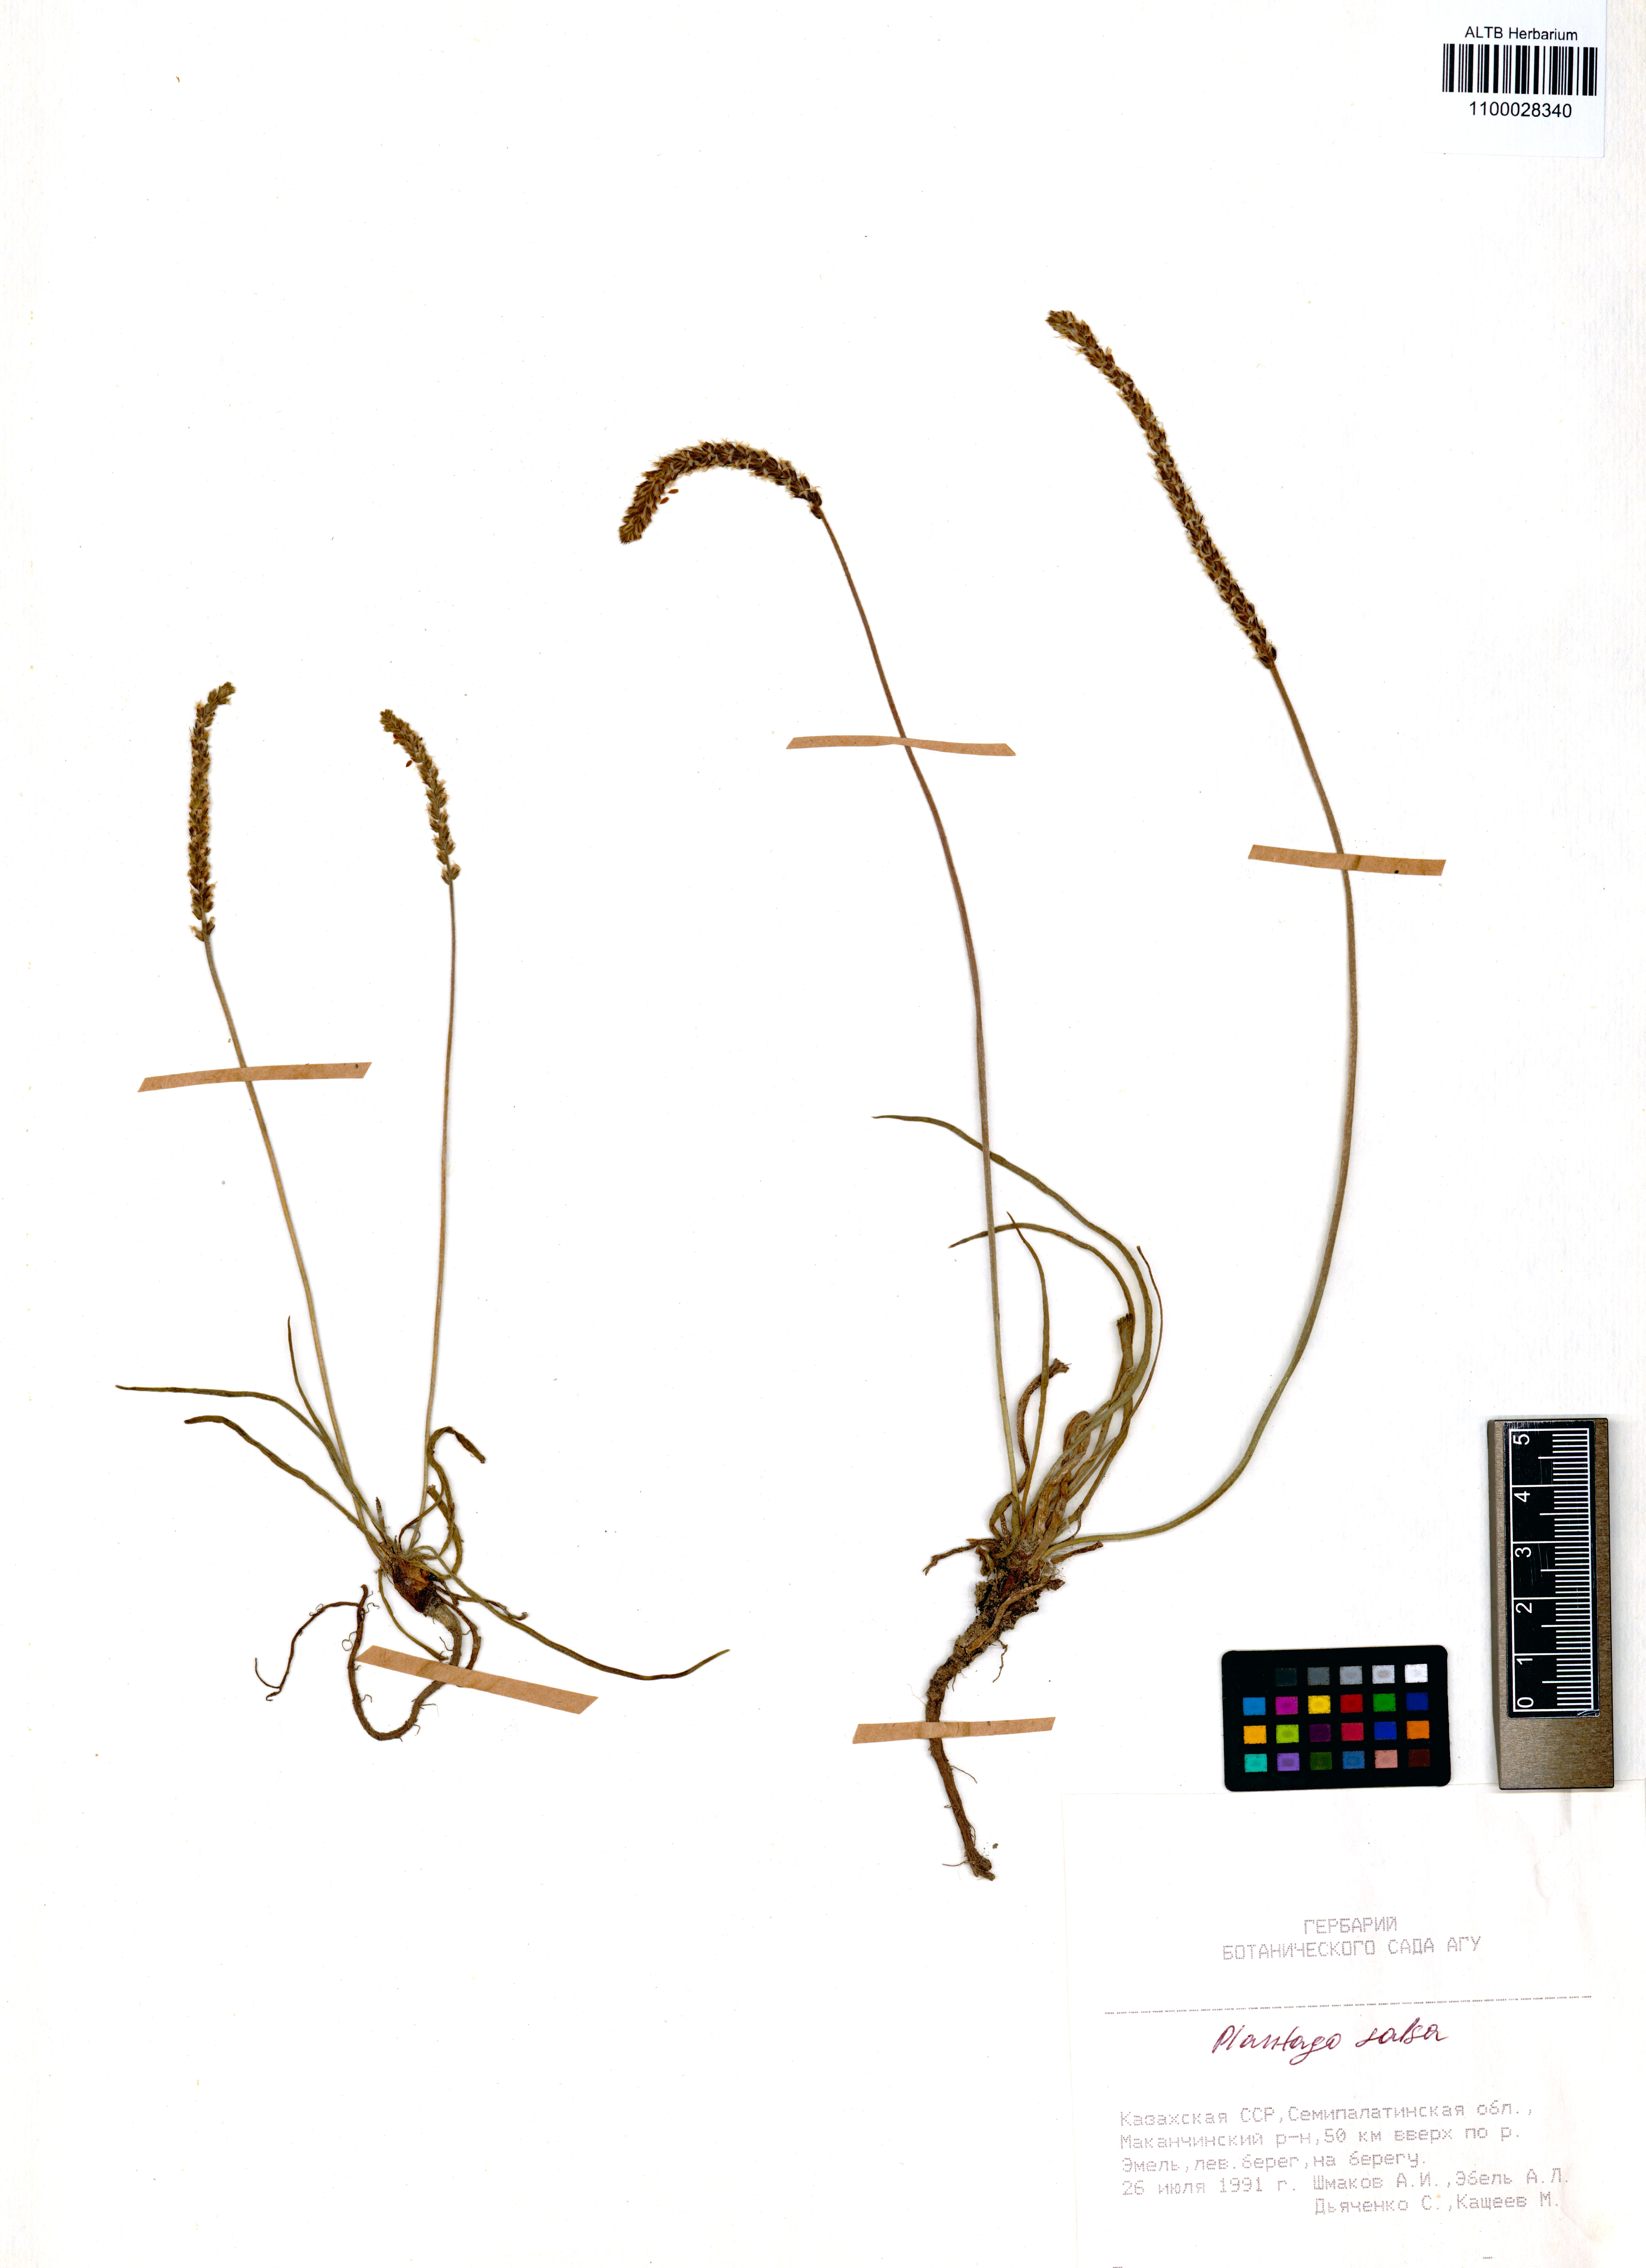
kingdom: Plantae
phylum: Tracheophyta
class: Magnoliopsida
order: Lamiales
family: Plantaginaceae
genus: Plantago
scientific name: Plantago salsa
